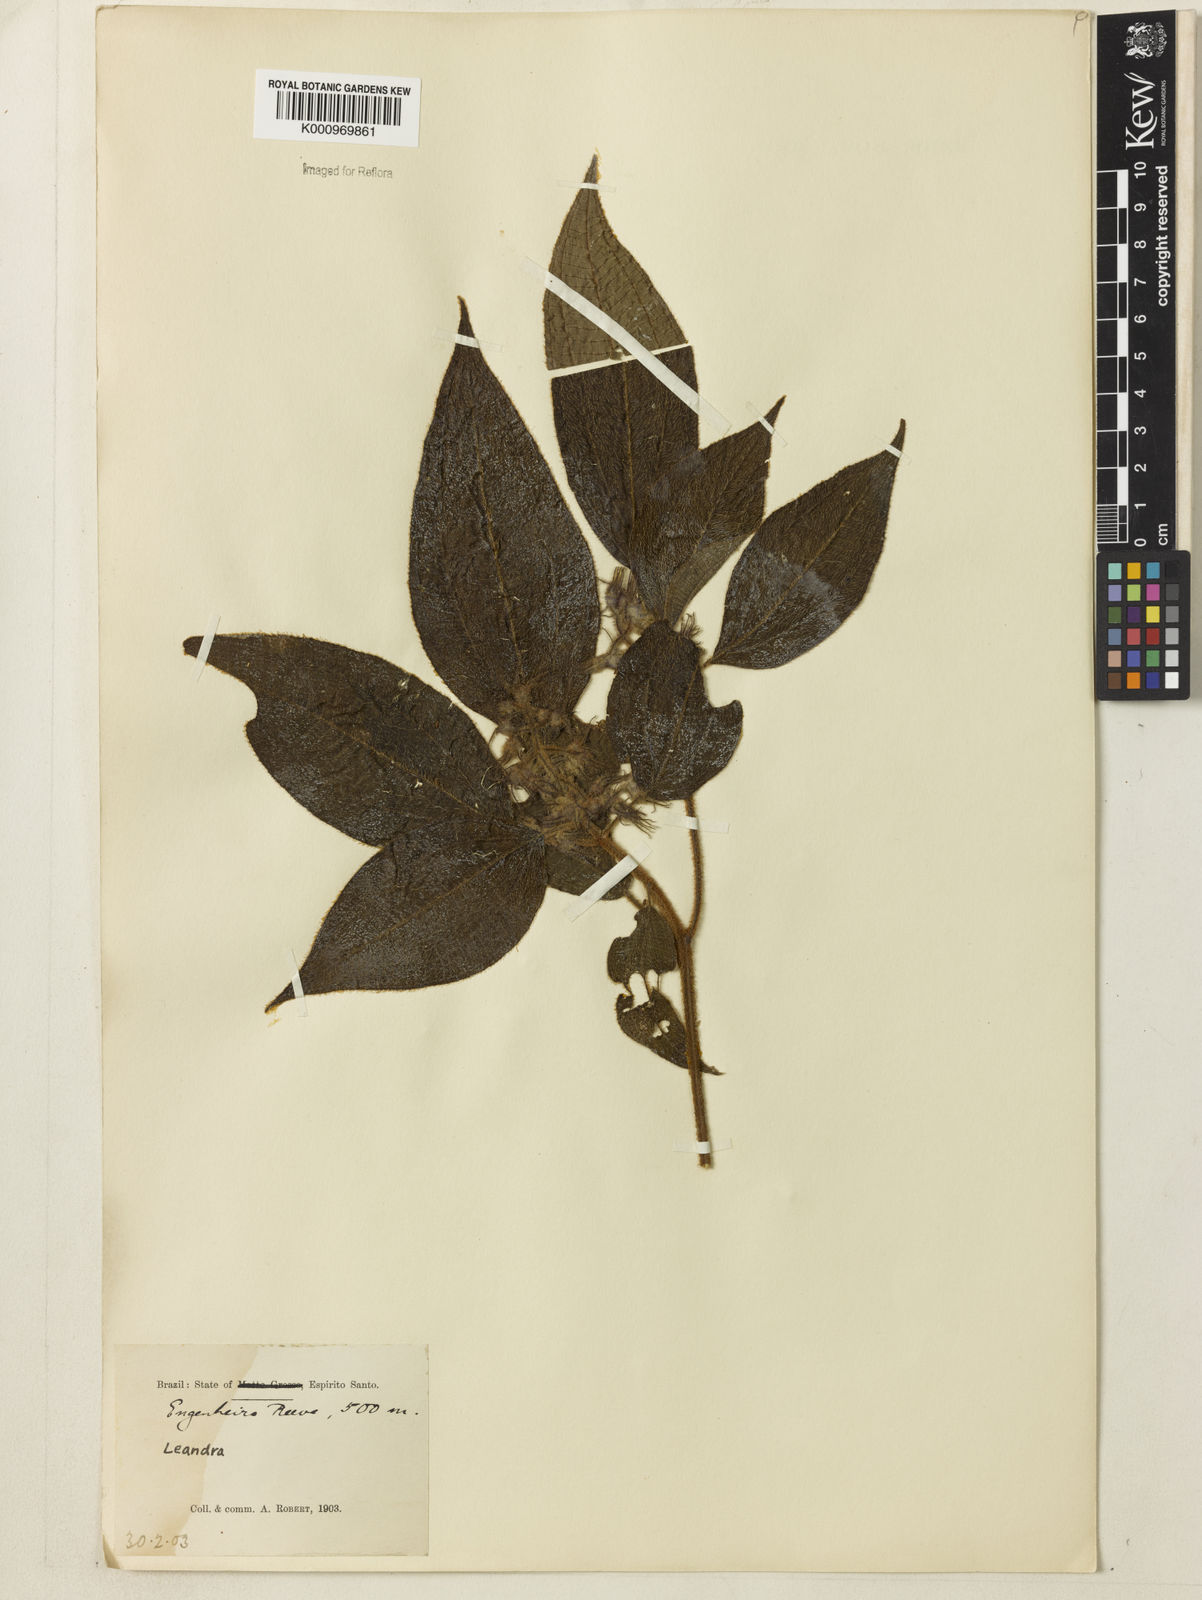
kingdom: Plantae
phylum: Tracheophyta
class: Magnoliopsida
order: Myrtales
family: Melastomataceae
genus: Miconia
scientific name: Miconia
